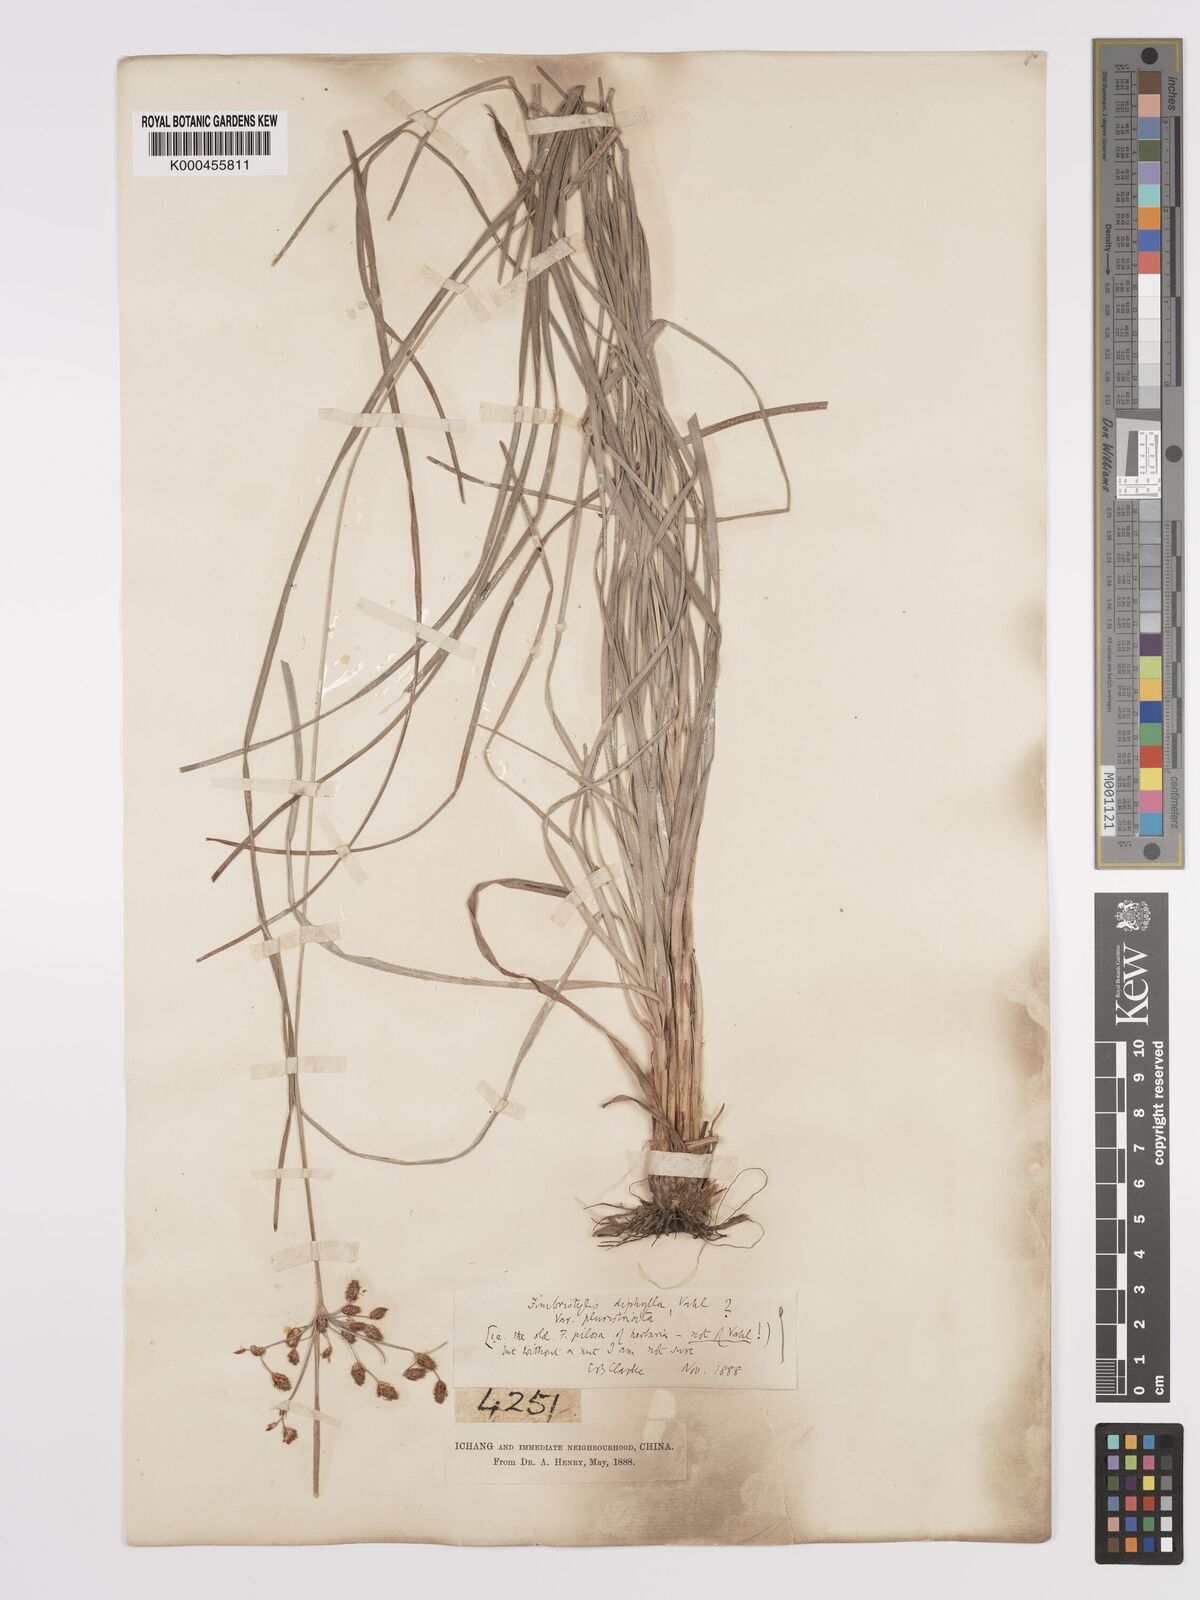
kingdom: Plantae
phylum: Tracheophyta
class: Liliopsida
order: Poales
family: Cyperaceae
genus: Fimbristylis
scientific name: Fimbristylis dichotoma
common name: Forked fimbry
